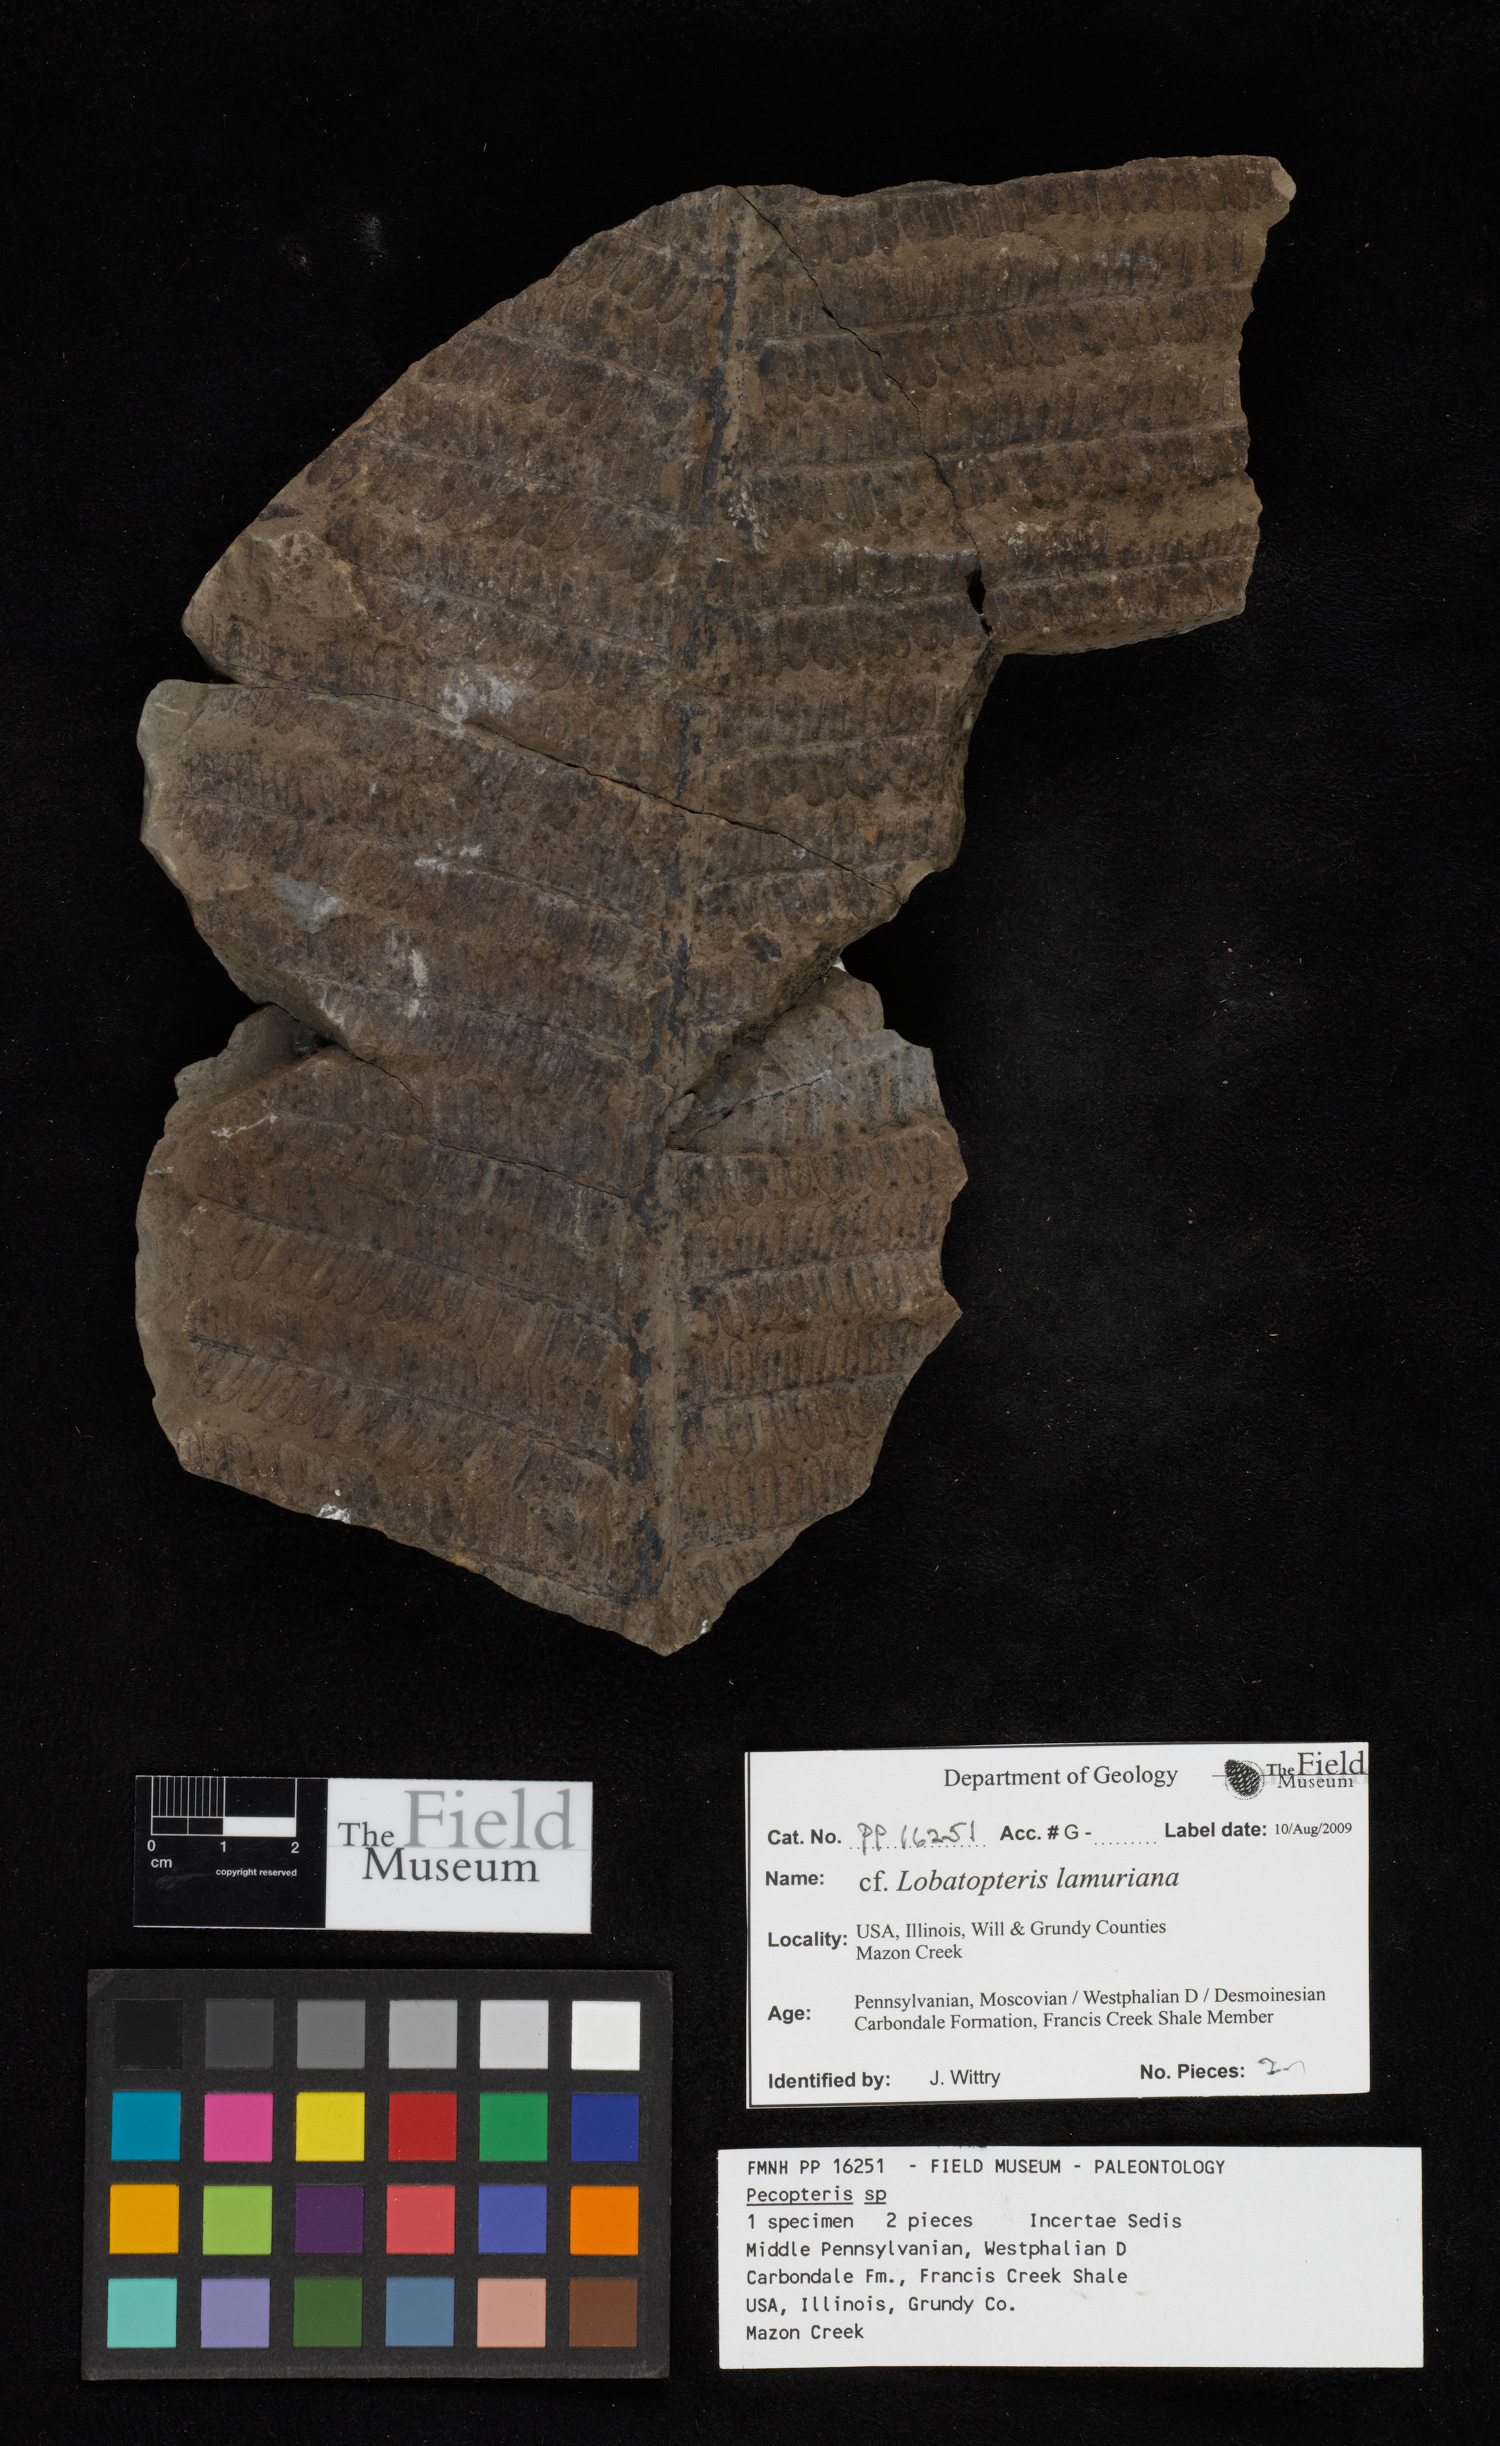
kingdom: Plantae
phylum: Tracheophyta
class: Polypodiopsida
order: Marattiales
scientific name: Marattiales
